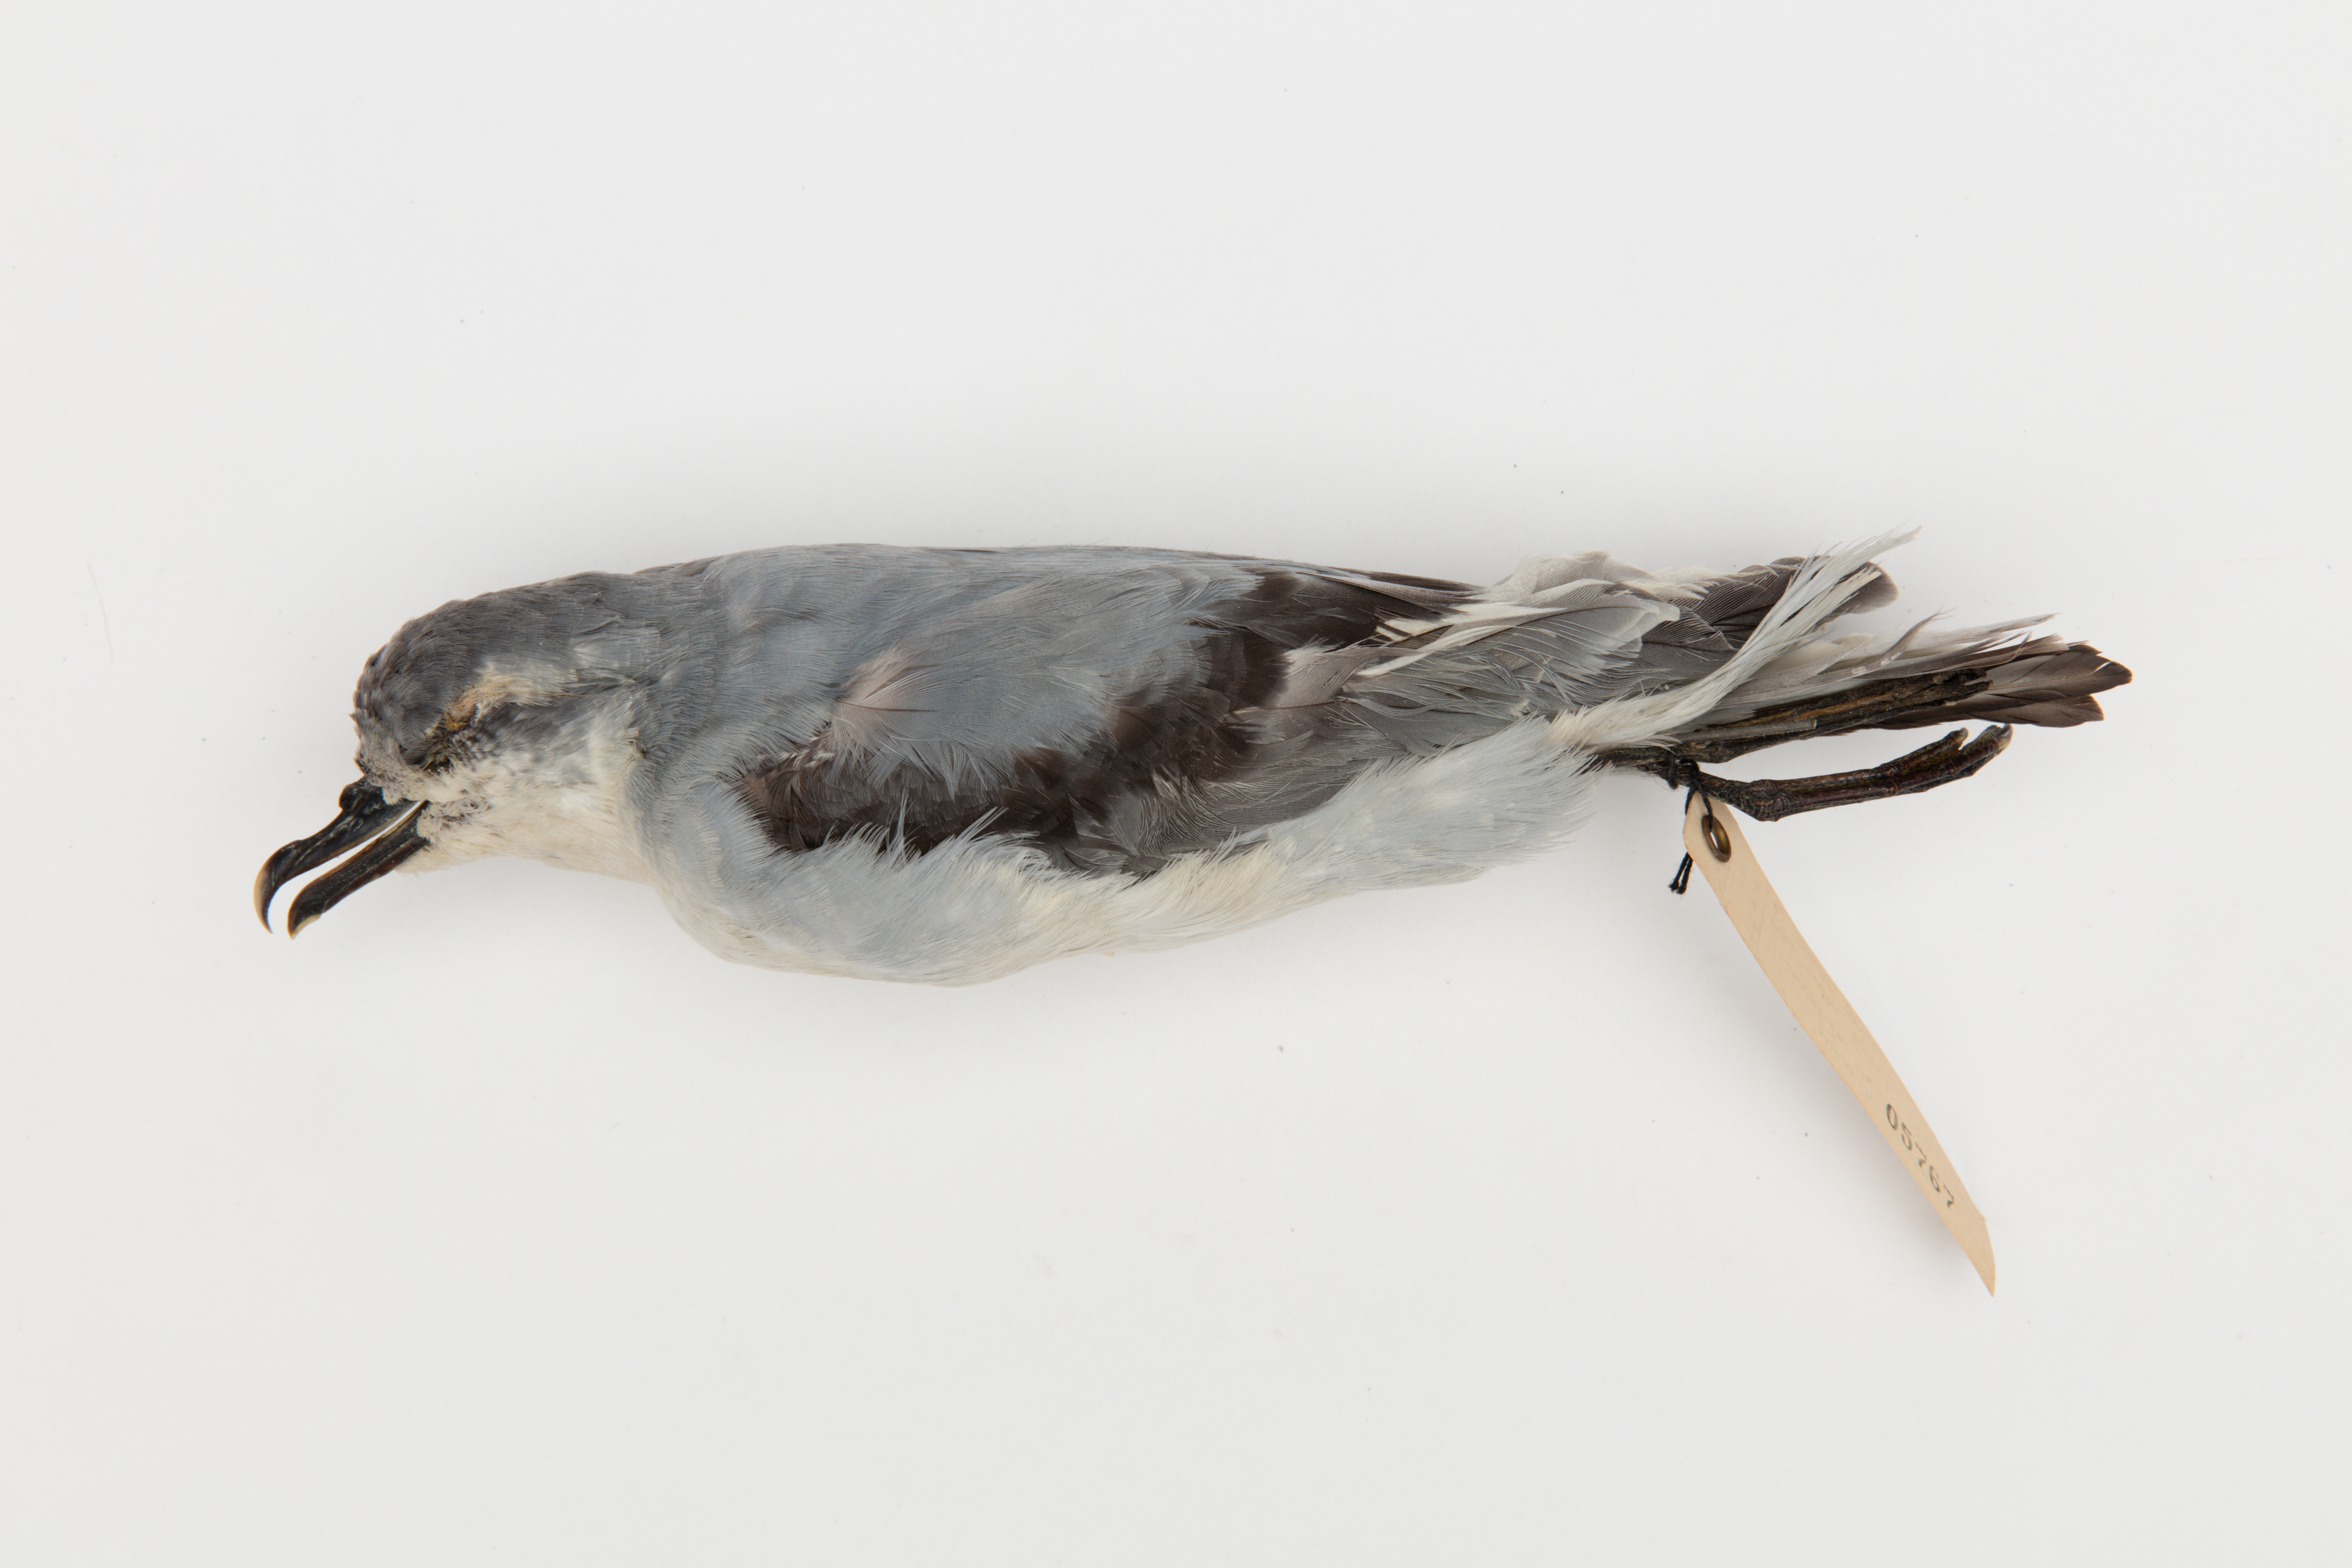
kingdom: Animalia
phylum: Chordata
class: Aves
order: Procellariiformes
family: Procellariidae
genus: Pachyptila
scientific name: Pachyptila turtur
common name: Fairy prion
